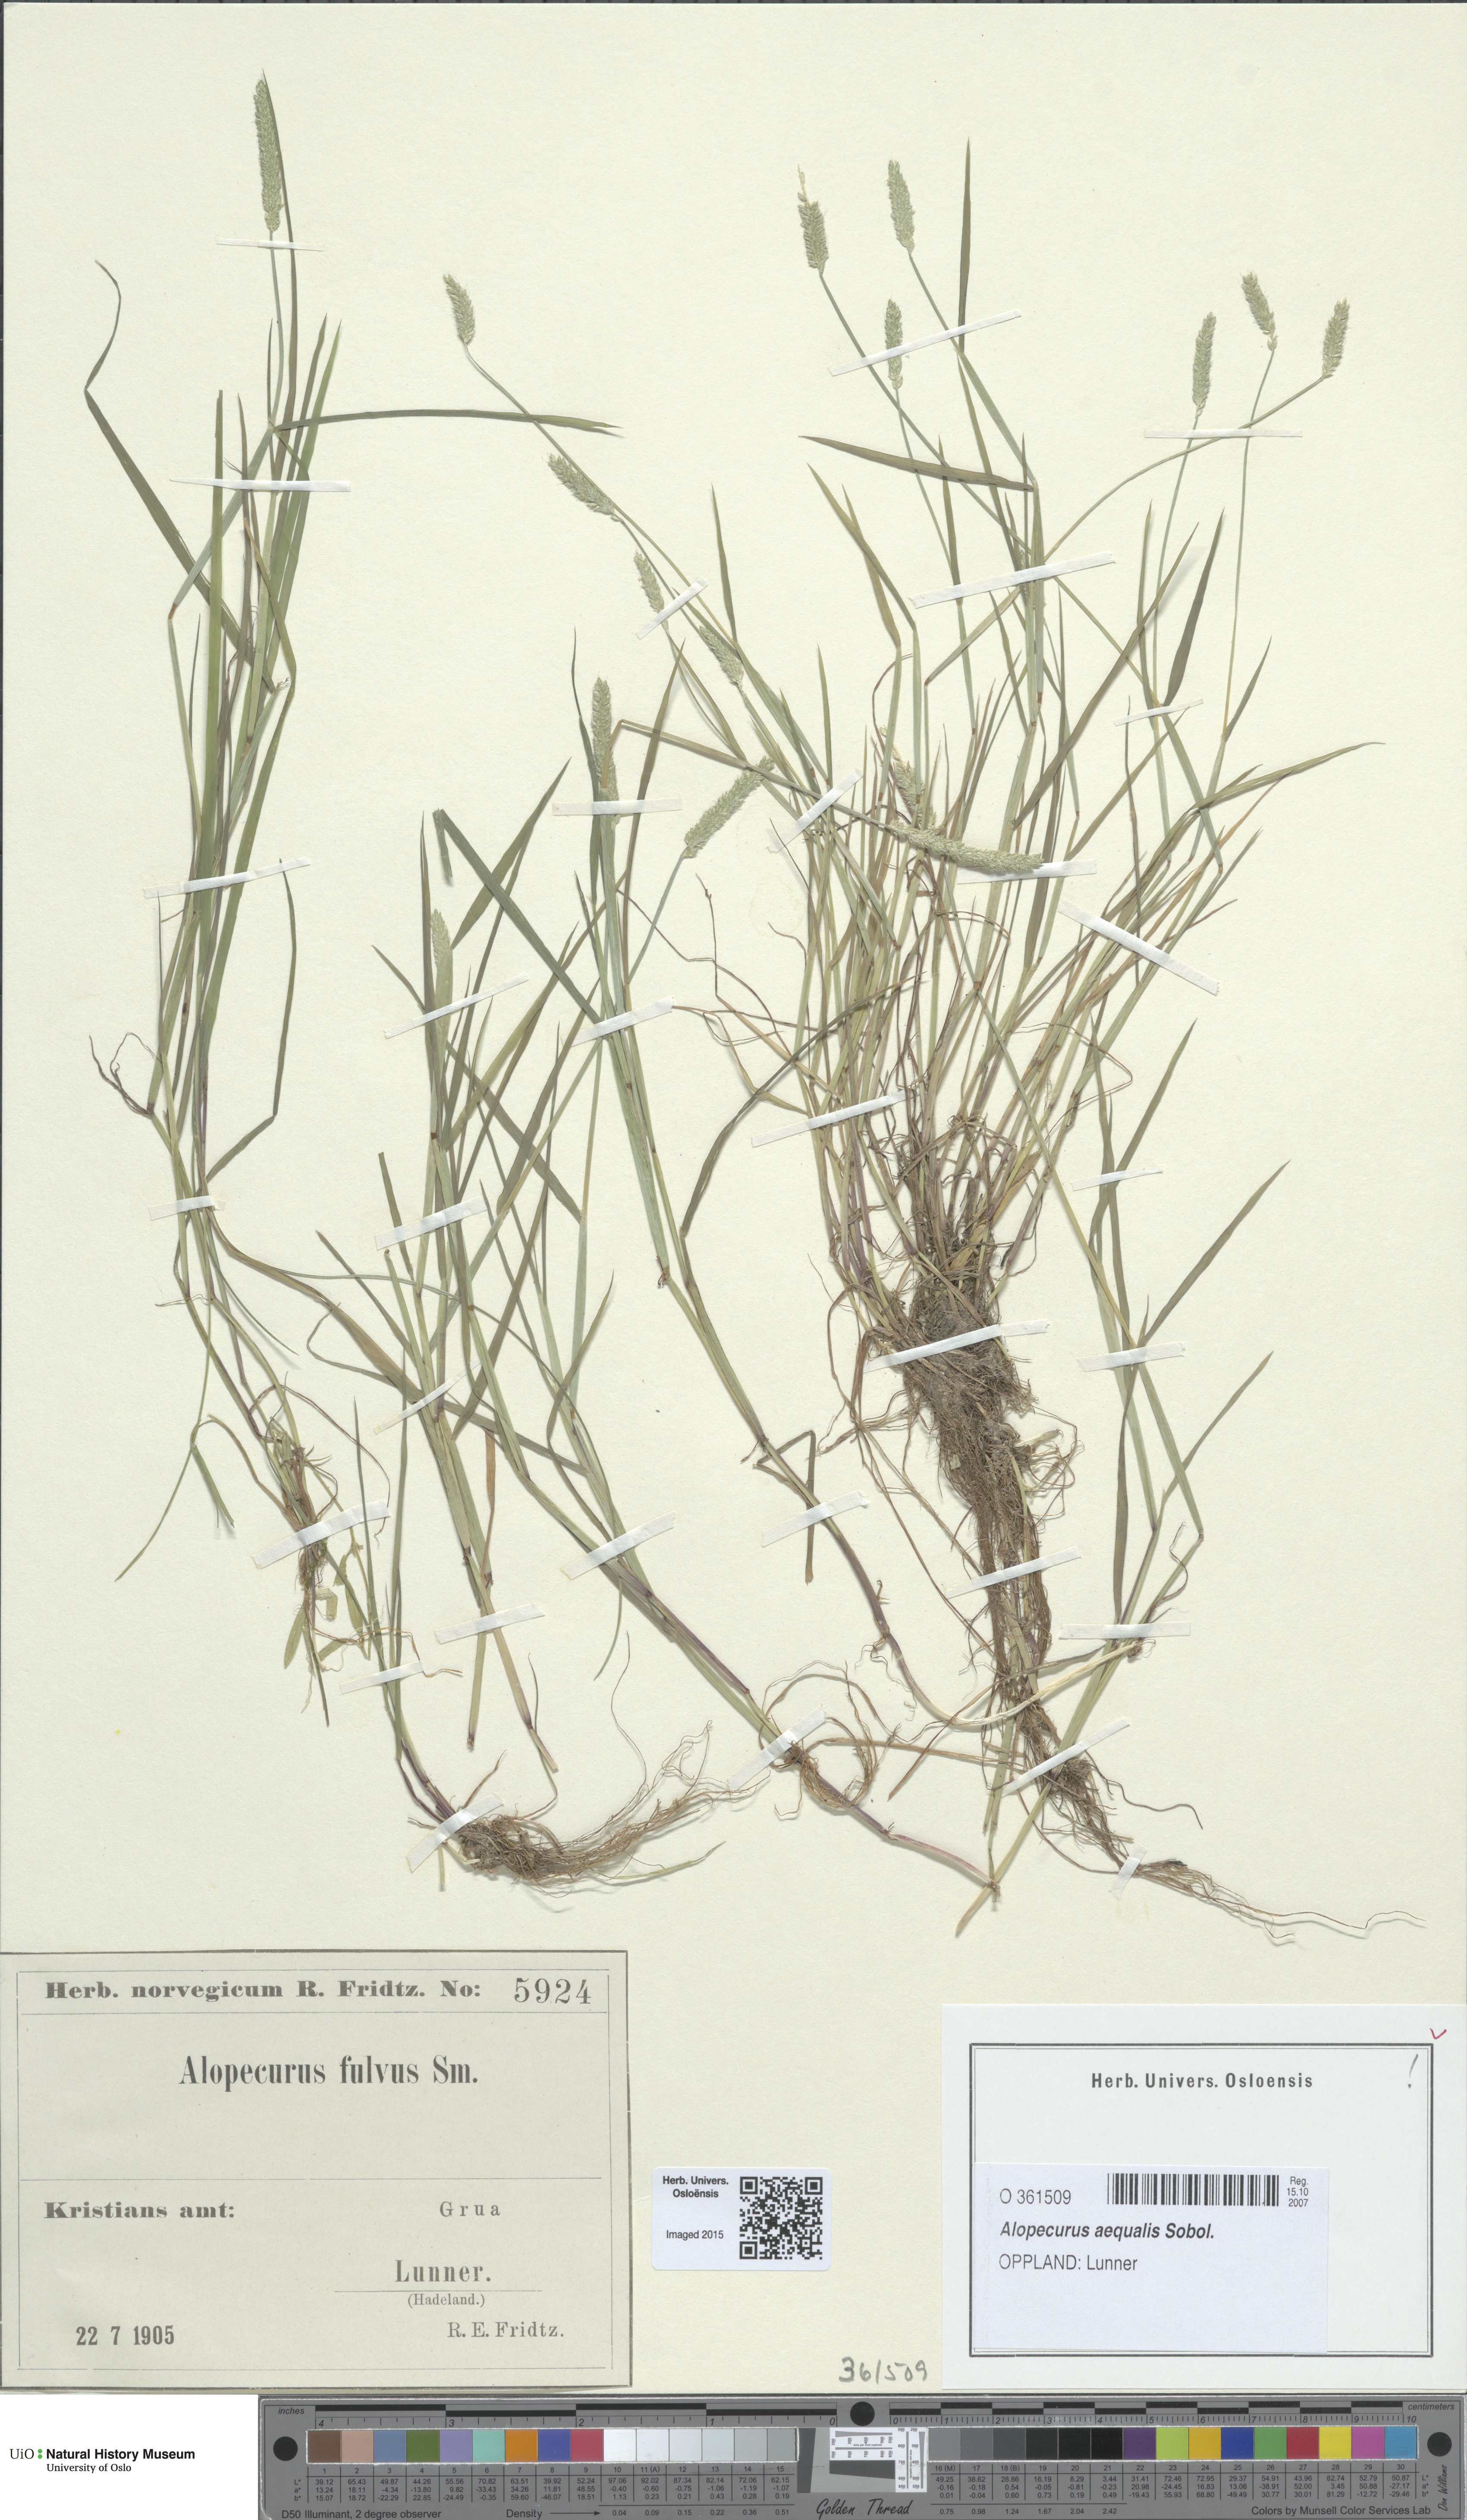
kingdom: Plantae
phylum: Tracheophyta
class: Liliopsida
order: Poales
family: Poaceae
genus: Alopecurus
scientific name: Alopecurus aequalis
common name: Orange foxtail
